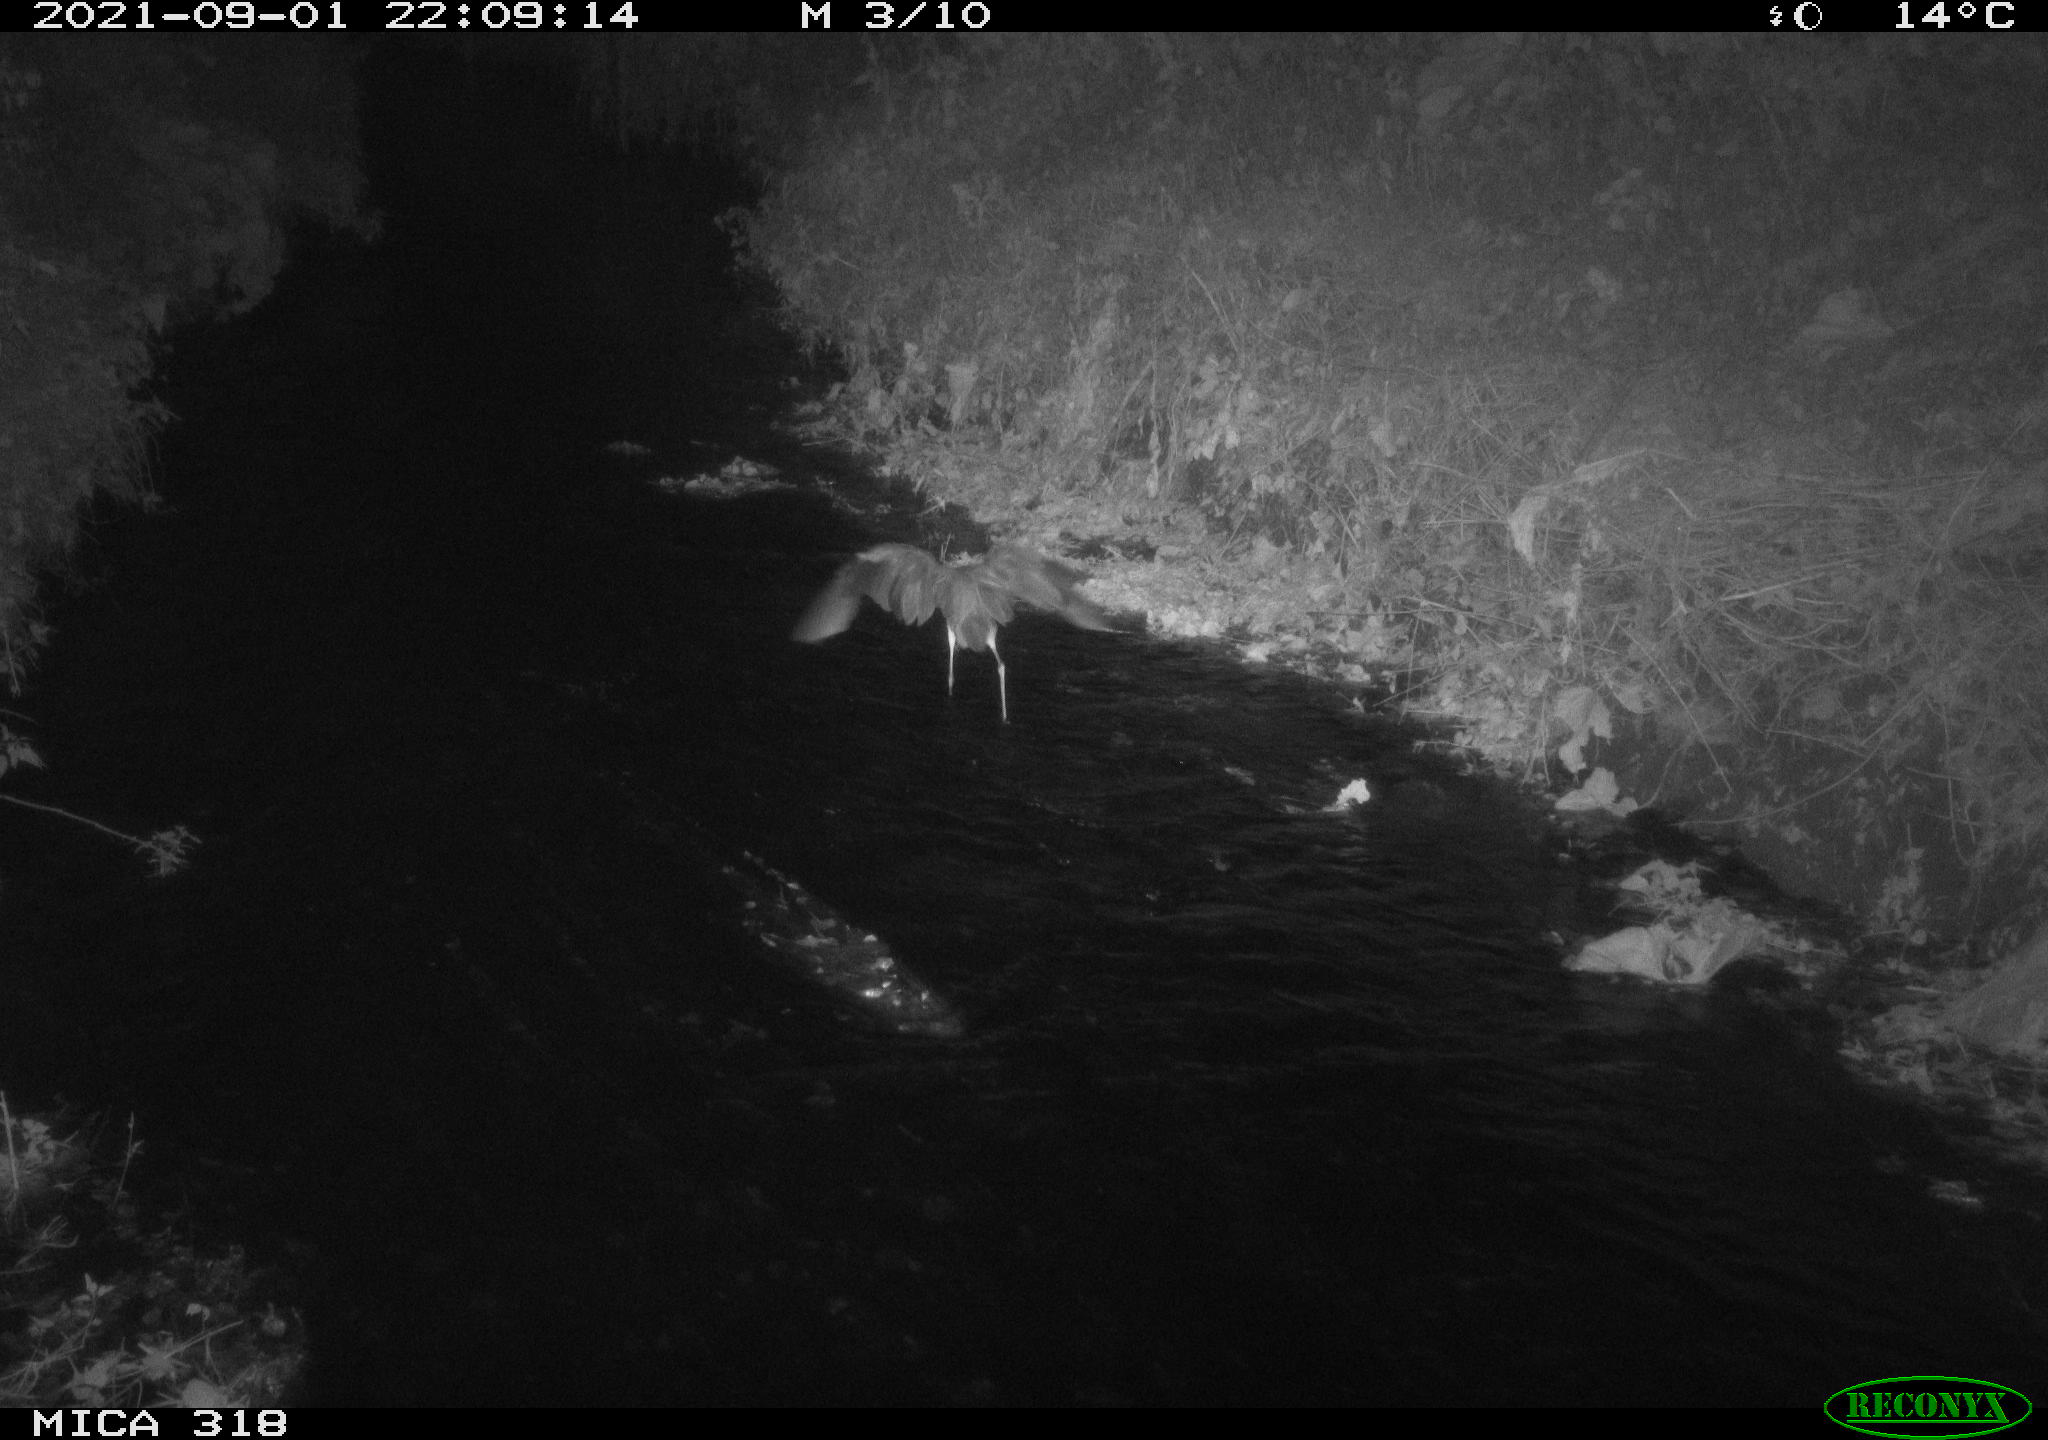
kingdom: Animalia
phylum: Chordata
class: Aves
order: Pelecaniformes
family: Ardeidae
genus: Ardea
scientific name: Ardea
